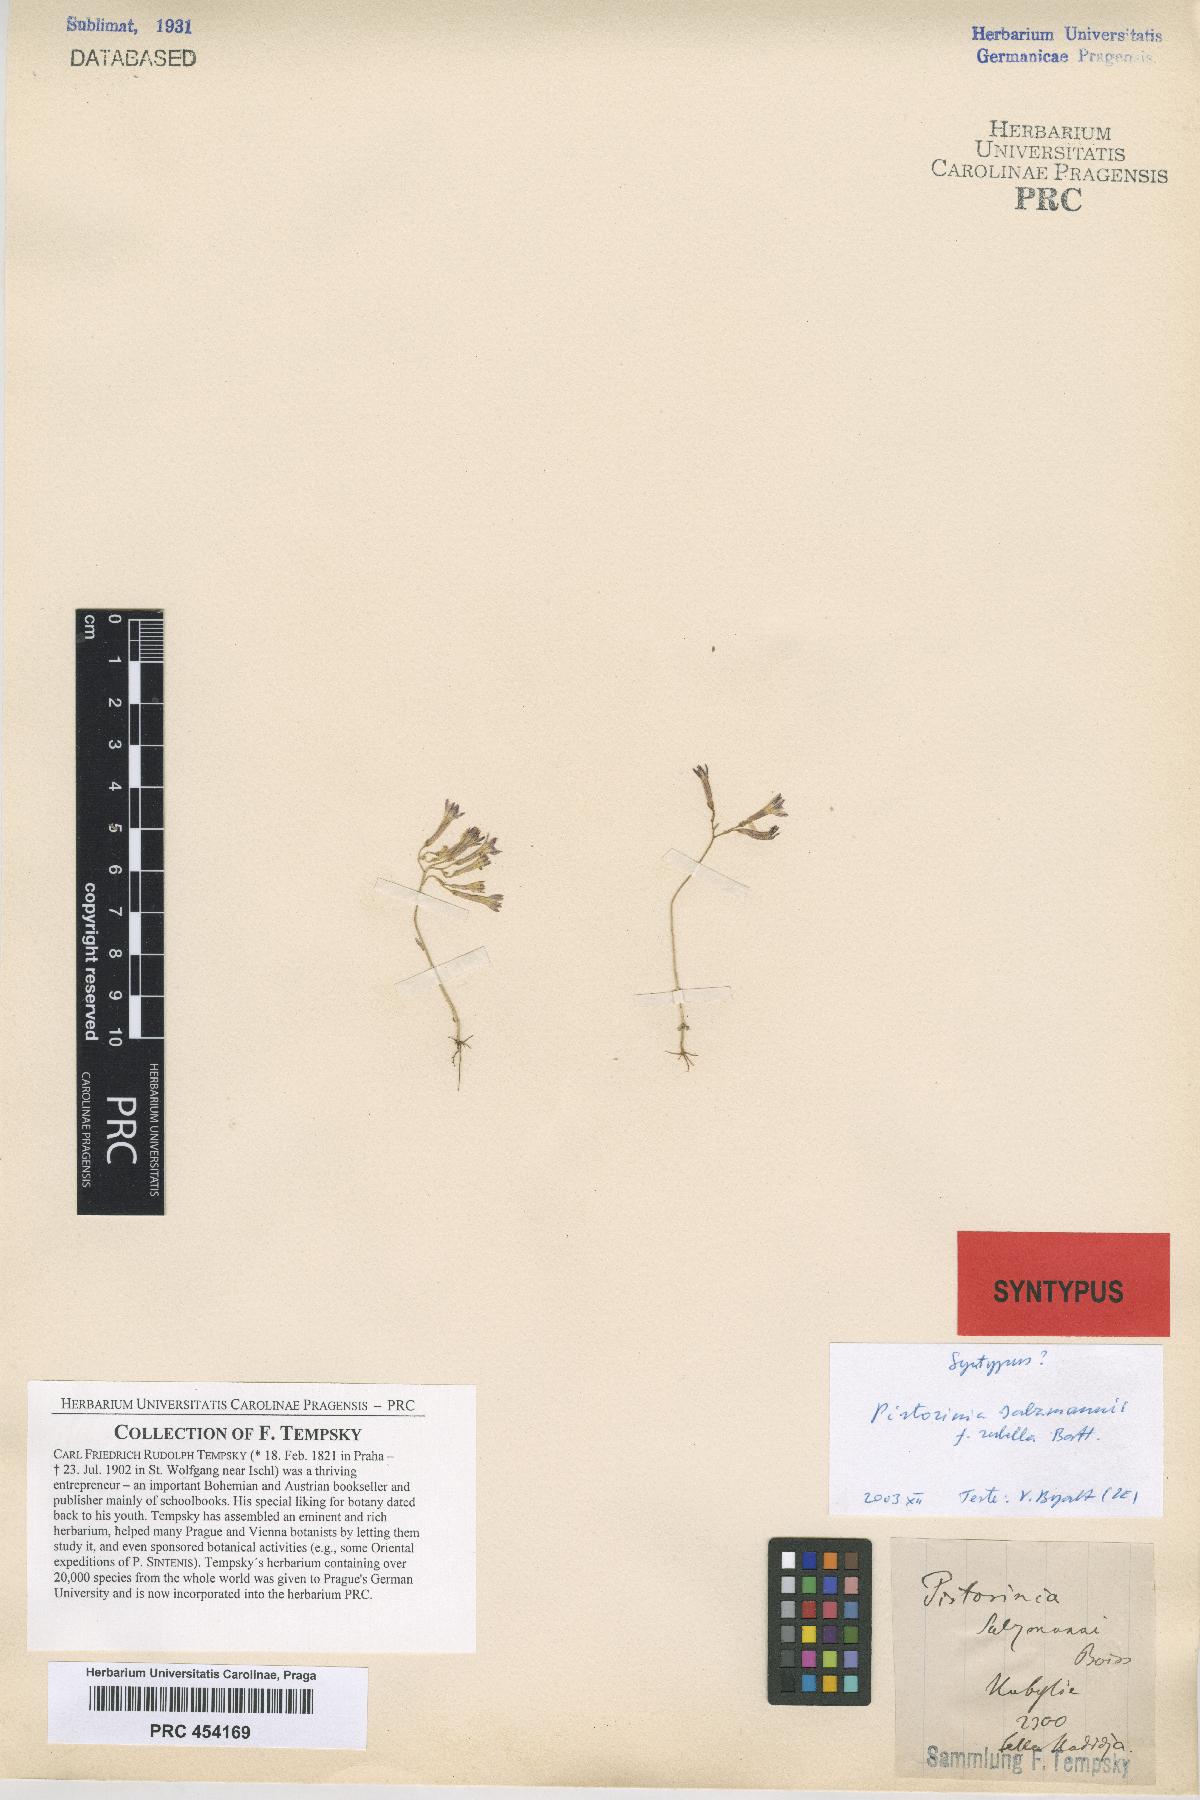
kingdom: Plantae
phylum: Tracheophyta
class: Magnoliopsida
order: Saxifragales
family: Crassulaceae
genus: Pistorinia
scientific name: Pistorinia breviflora
